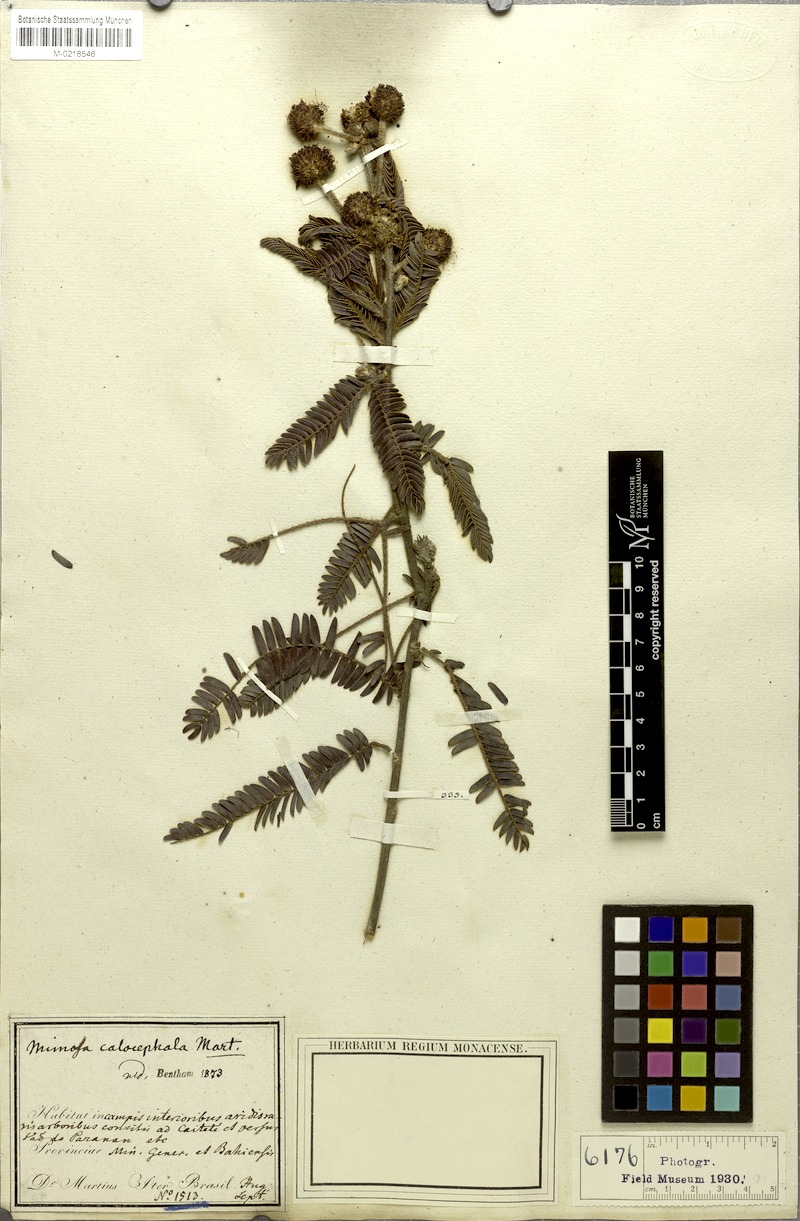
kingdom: Plantae
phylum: Tracheophyta
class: Magnoliopsida
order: Fabales
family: Fabaceae
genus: Mimosa
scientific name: Mimosa calocephala
